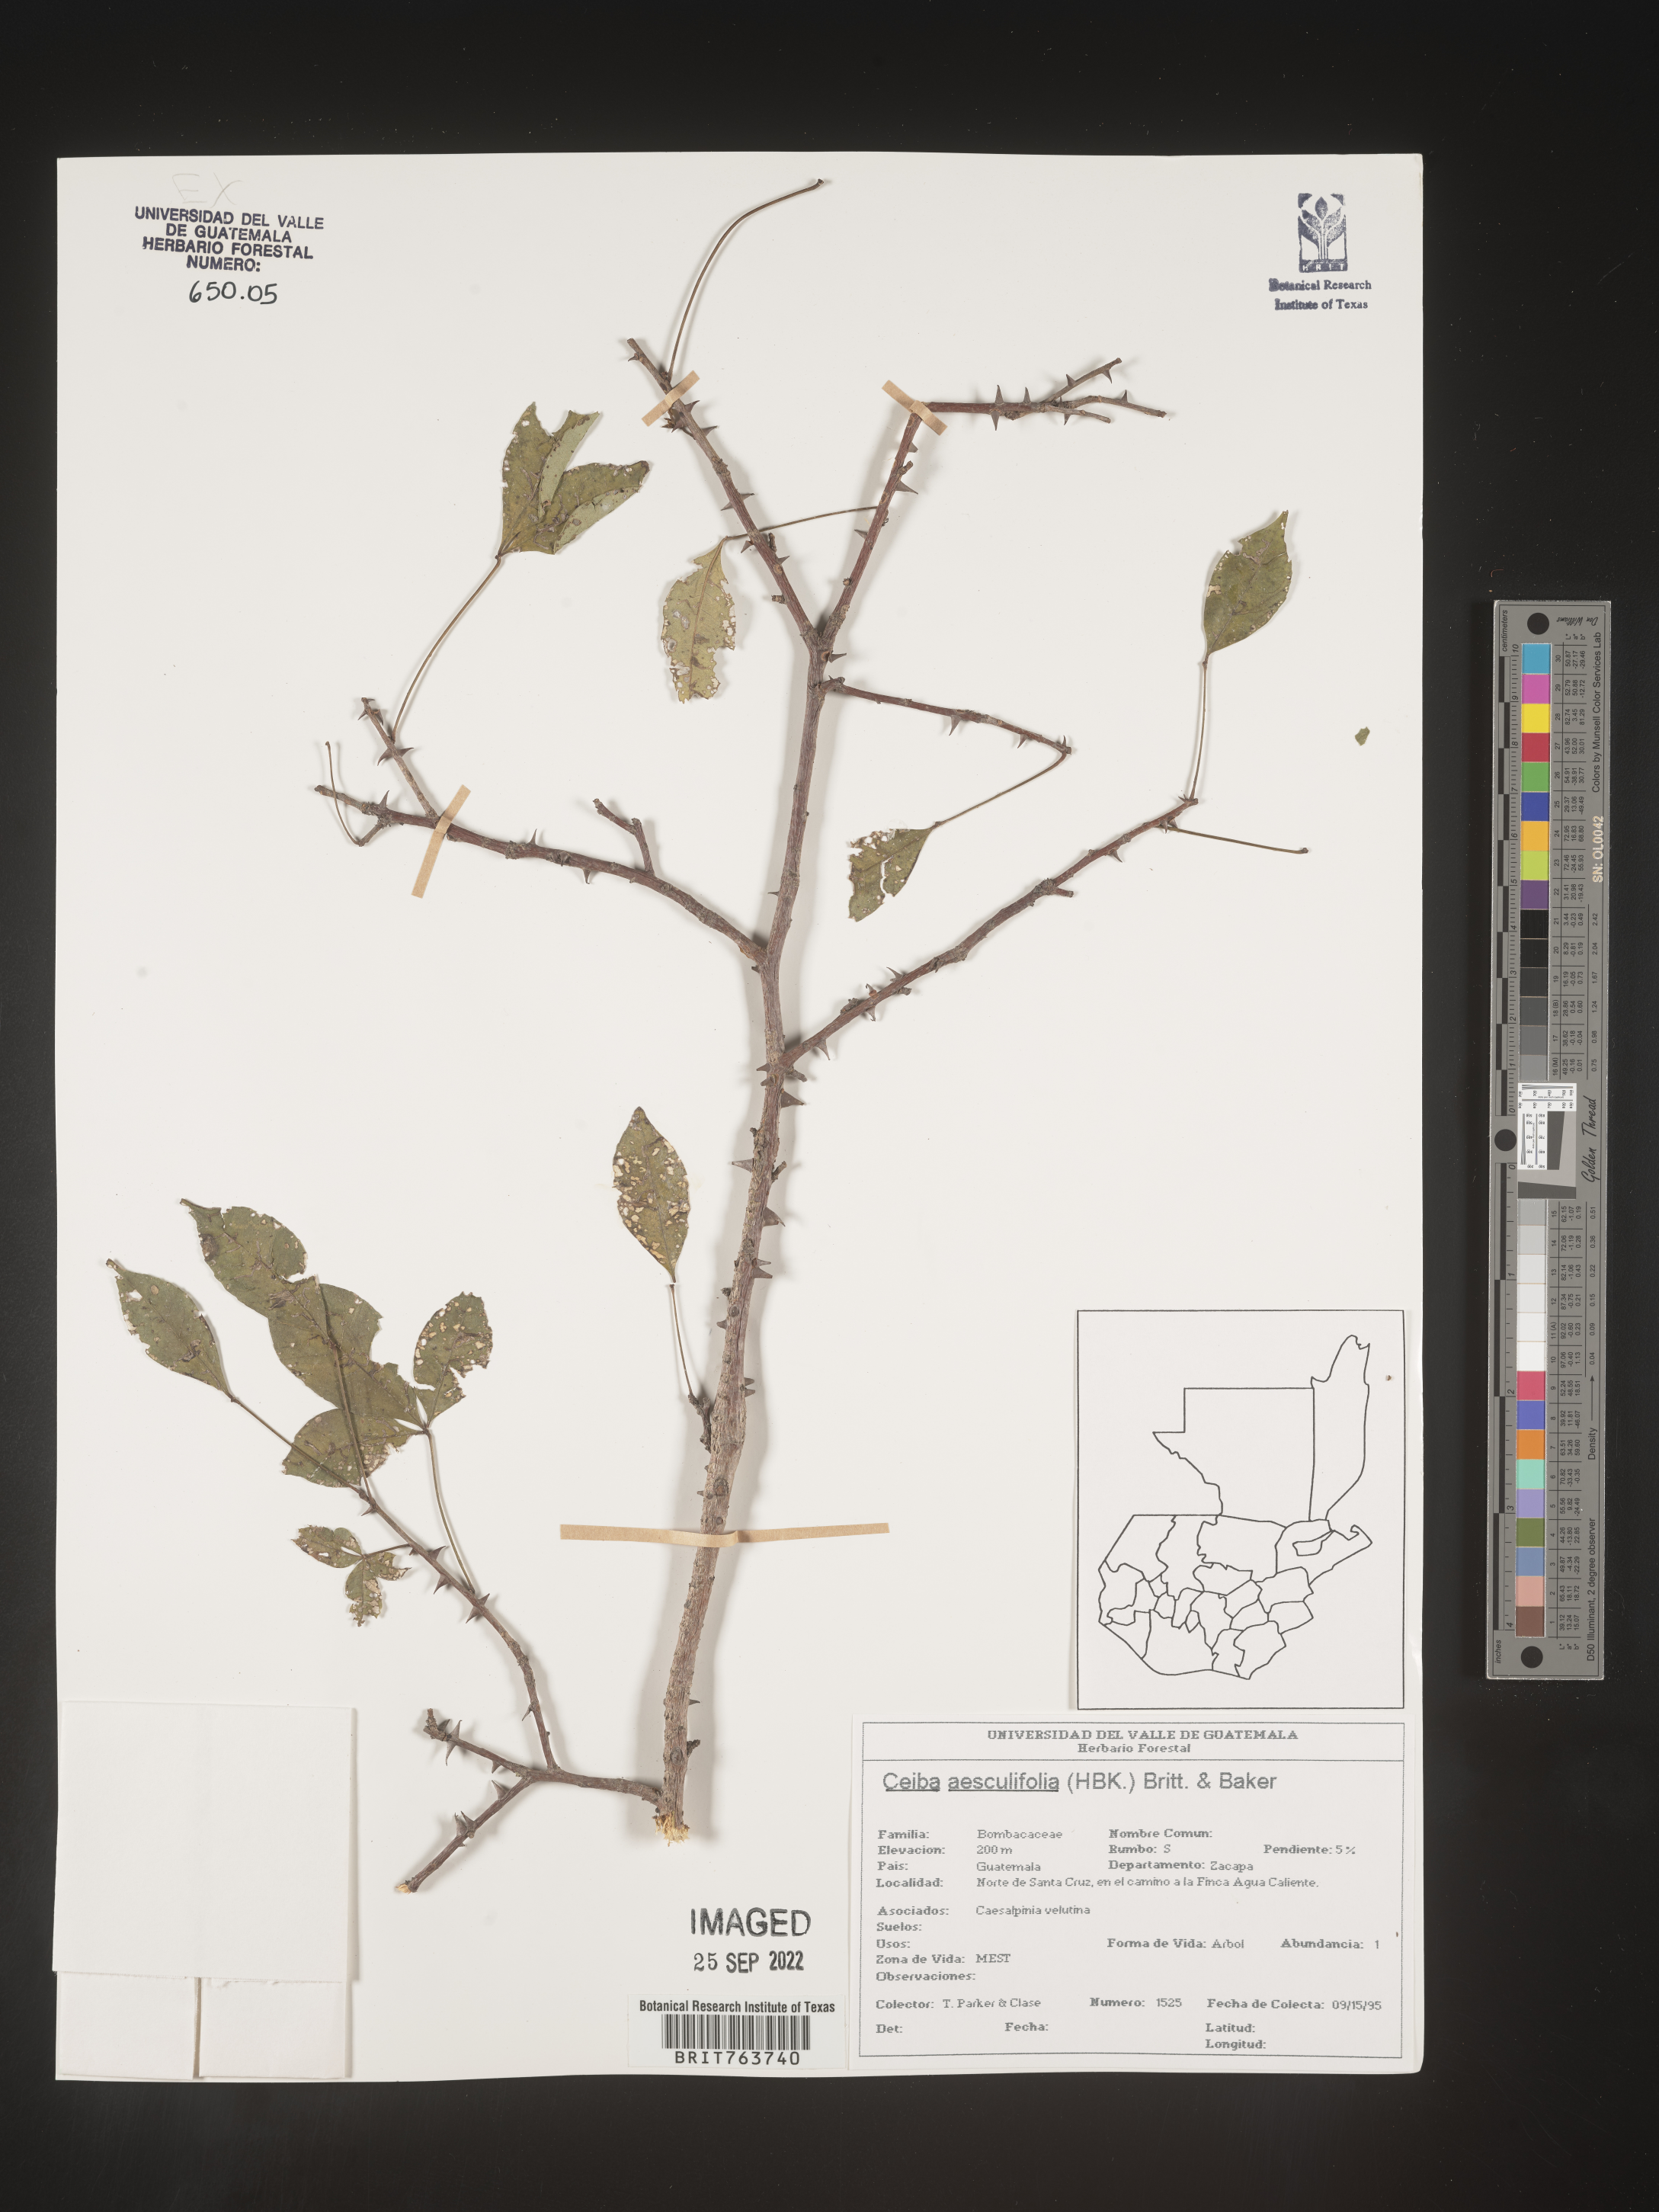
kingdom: Plantae
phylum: Tracheophyta
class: Magnoliopsida
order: Malvales
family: Malvaceae
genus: Ceiba
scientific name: Ceiba
